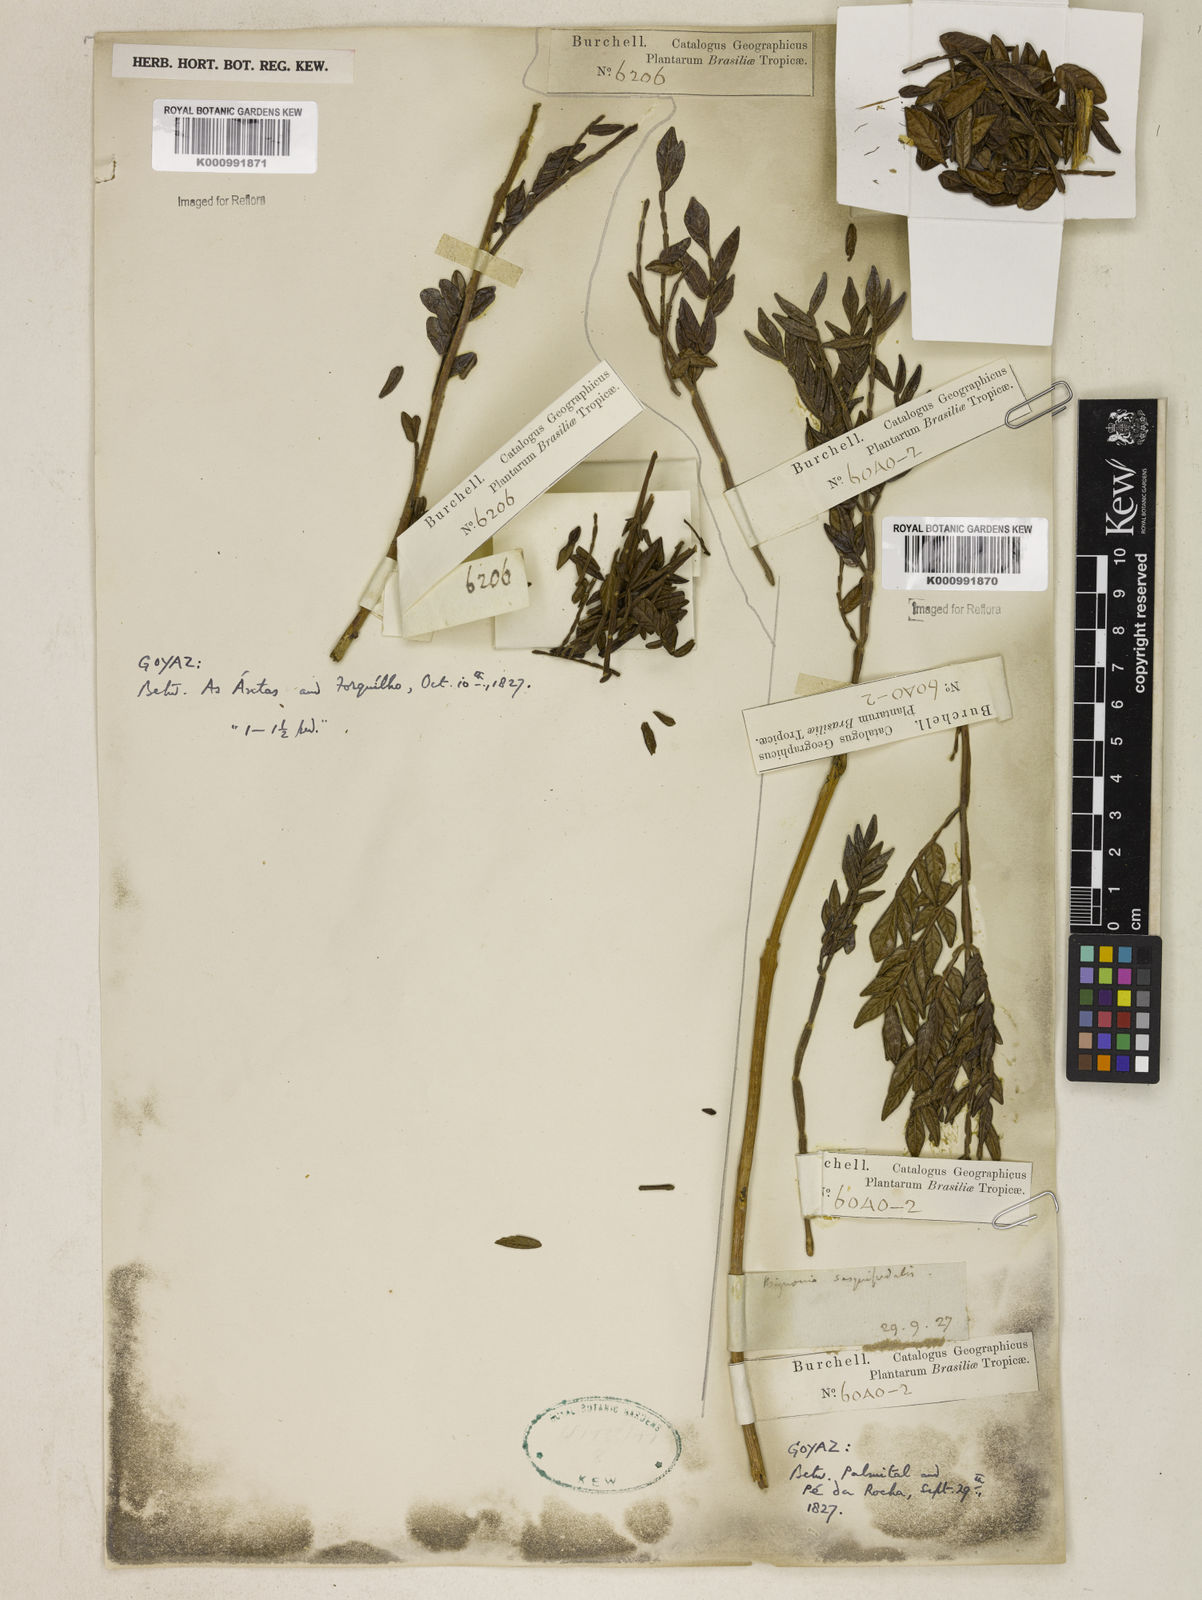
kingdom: Plantae
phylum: Tracheophyta
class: Magnoliopsida
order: Lamiales
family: Bignoniaceae
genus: Jacaranda
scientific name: Jacaranda
